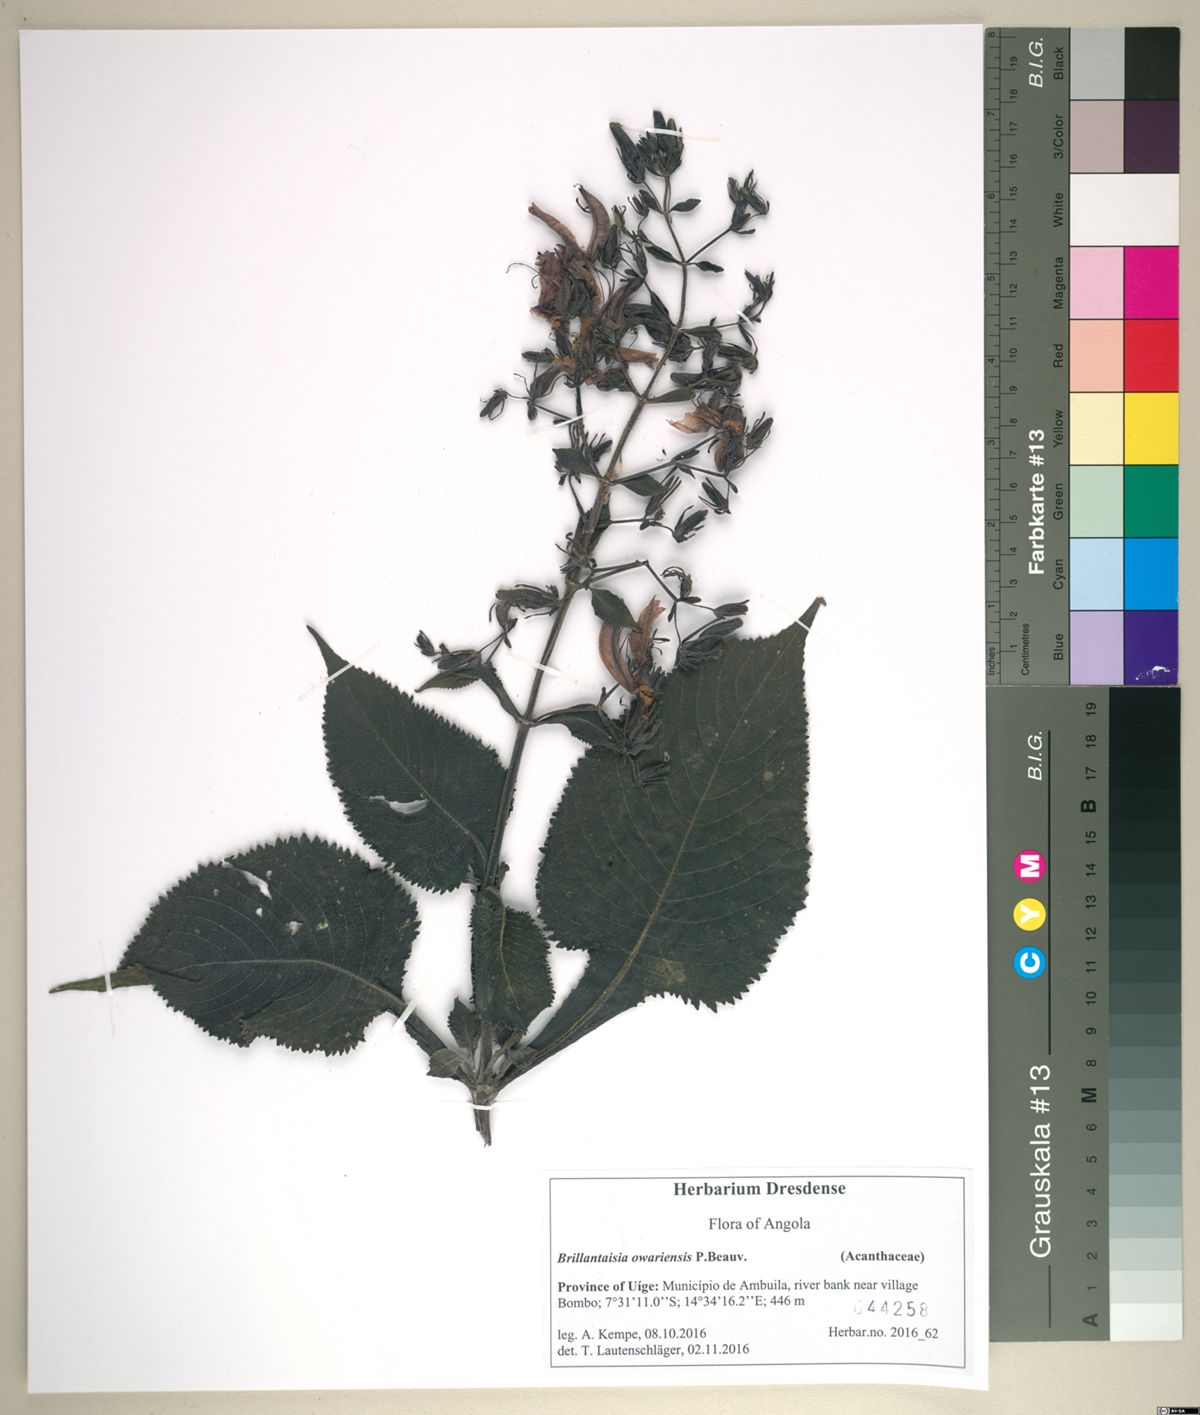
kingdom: Plantae
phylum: Tracheophyta
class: Magnoliopsida
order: Lamiales
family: Acanthaceae
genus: Brillantaisia
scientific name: Brillantaisia owariensis
